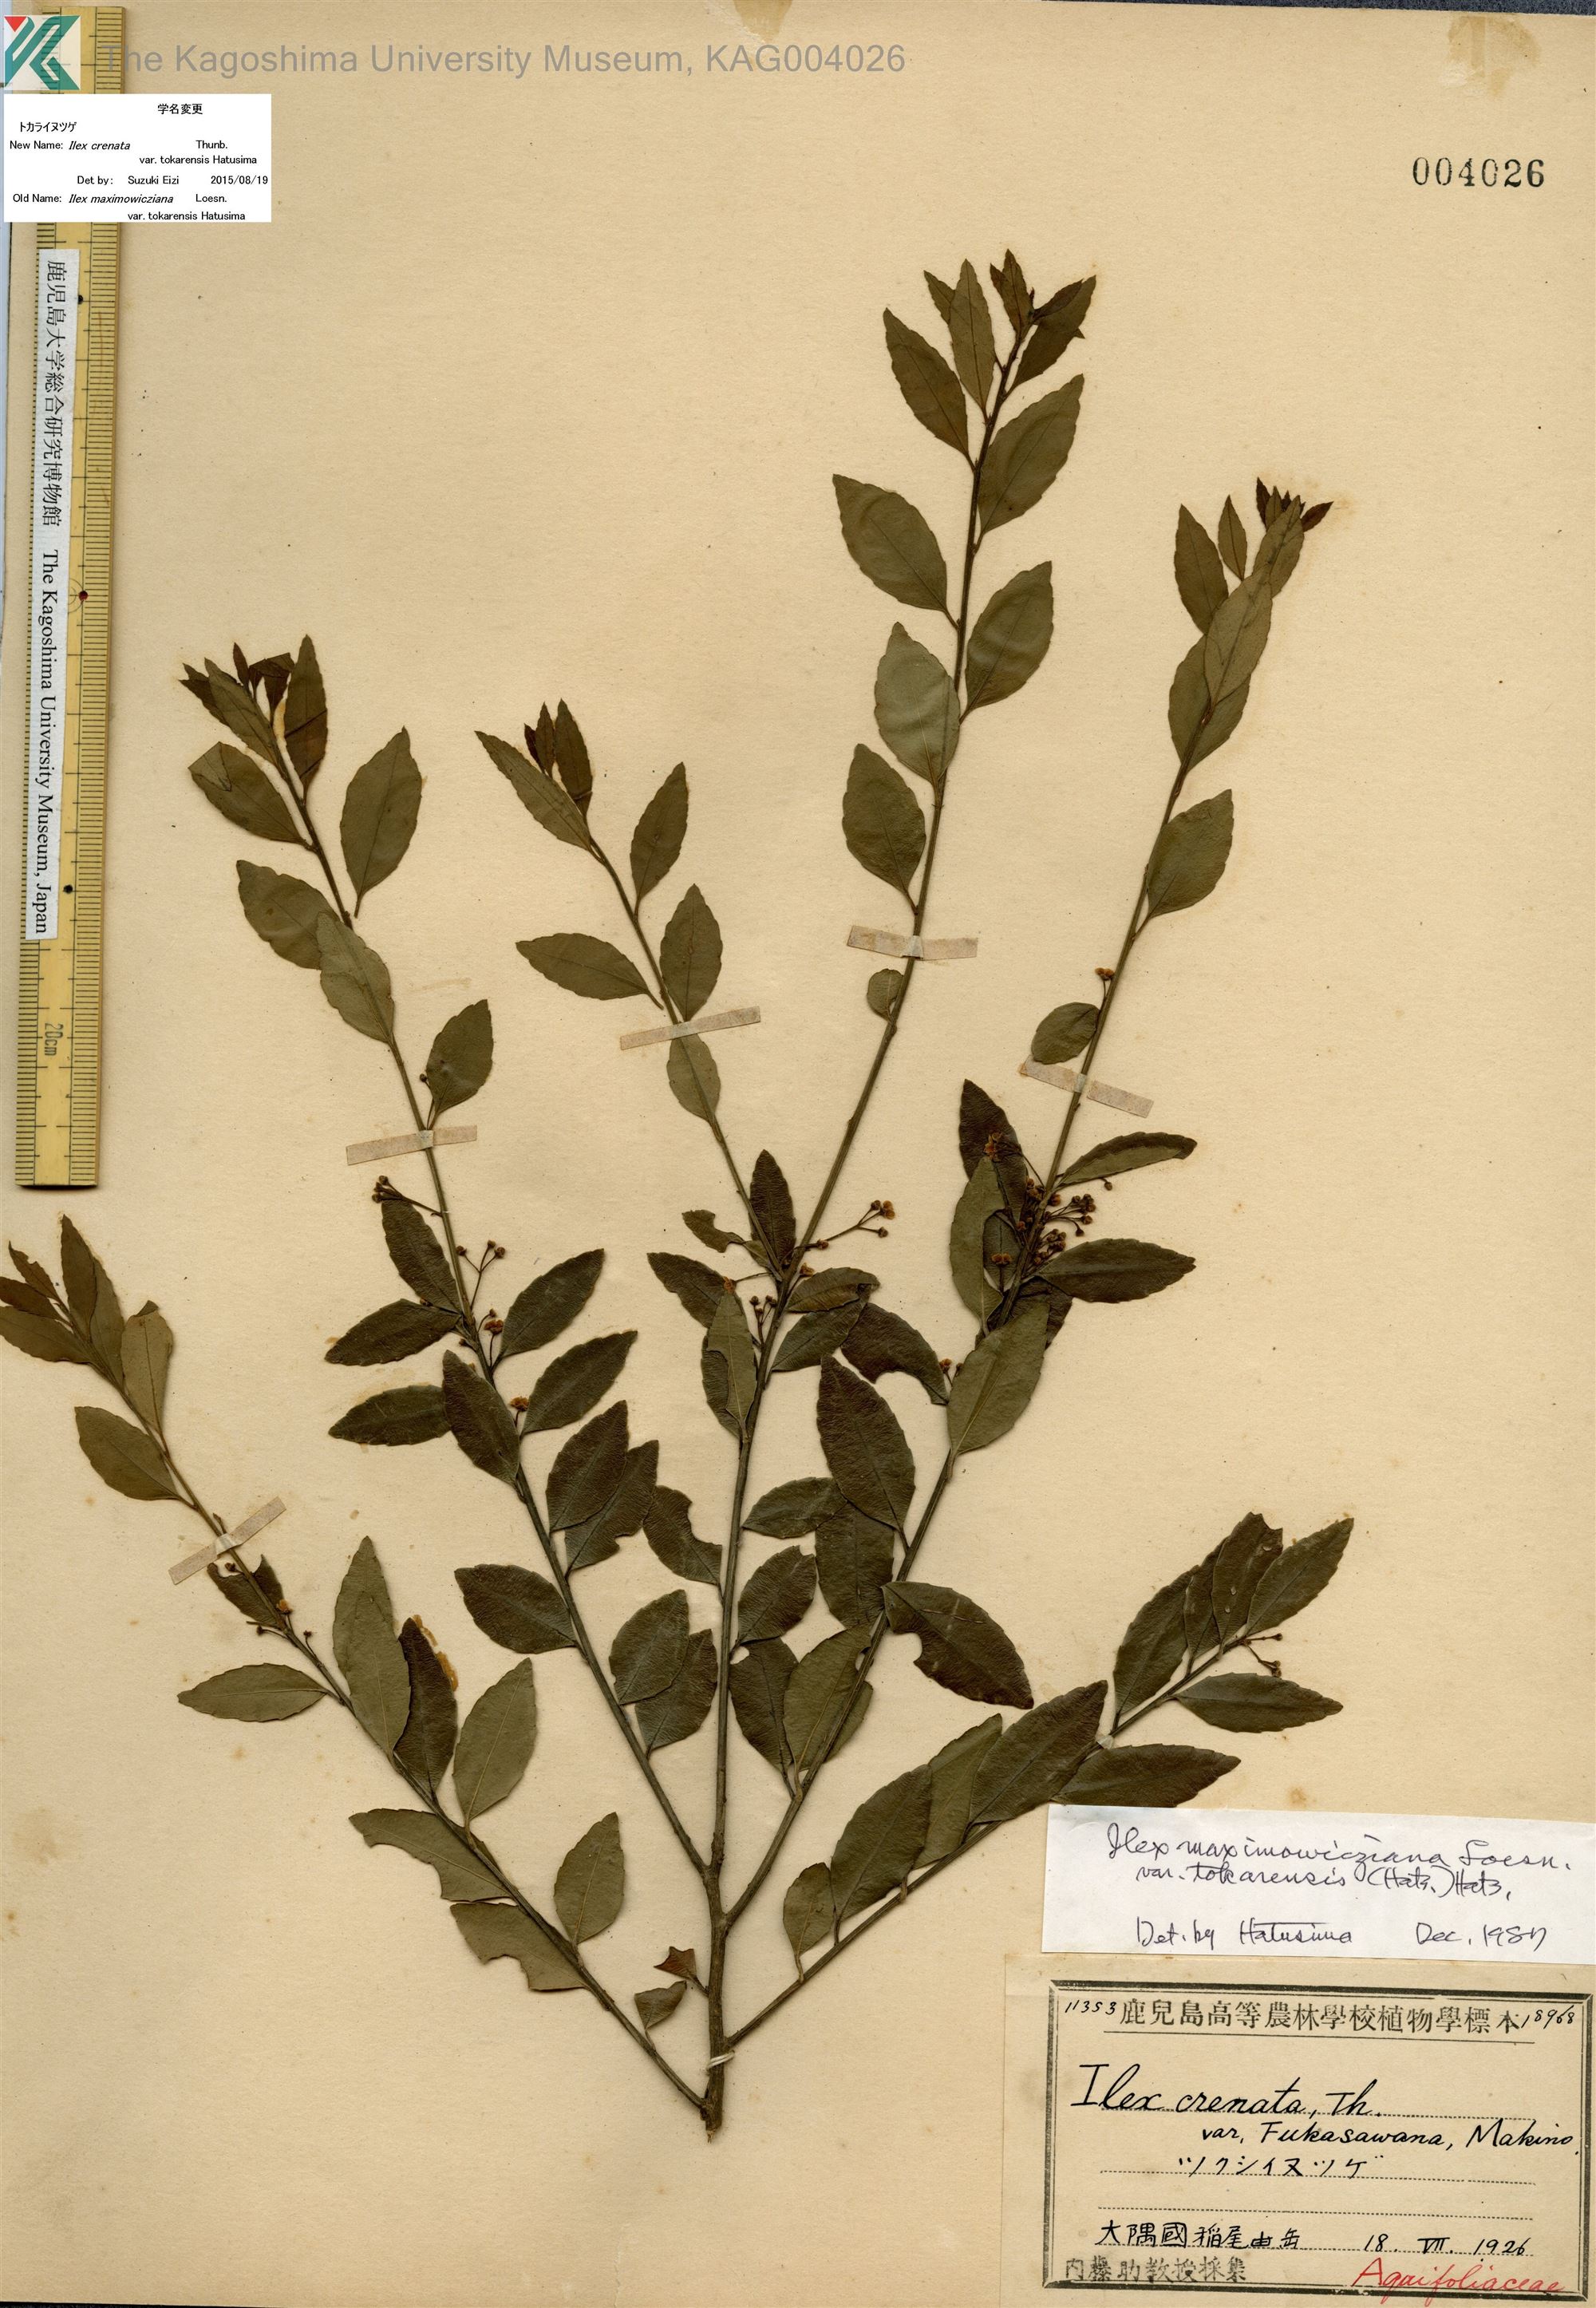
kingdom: Plantae
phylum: Tracheophyta
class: Magnoliopsida
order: Aquifoliales
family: Aquifoliaceae
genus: Ilex
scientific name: Ilex crenata
